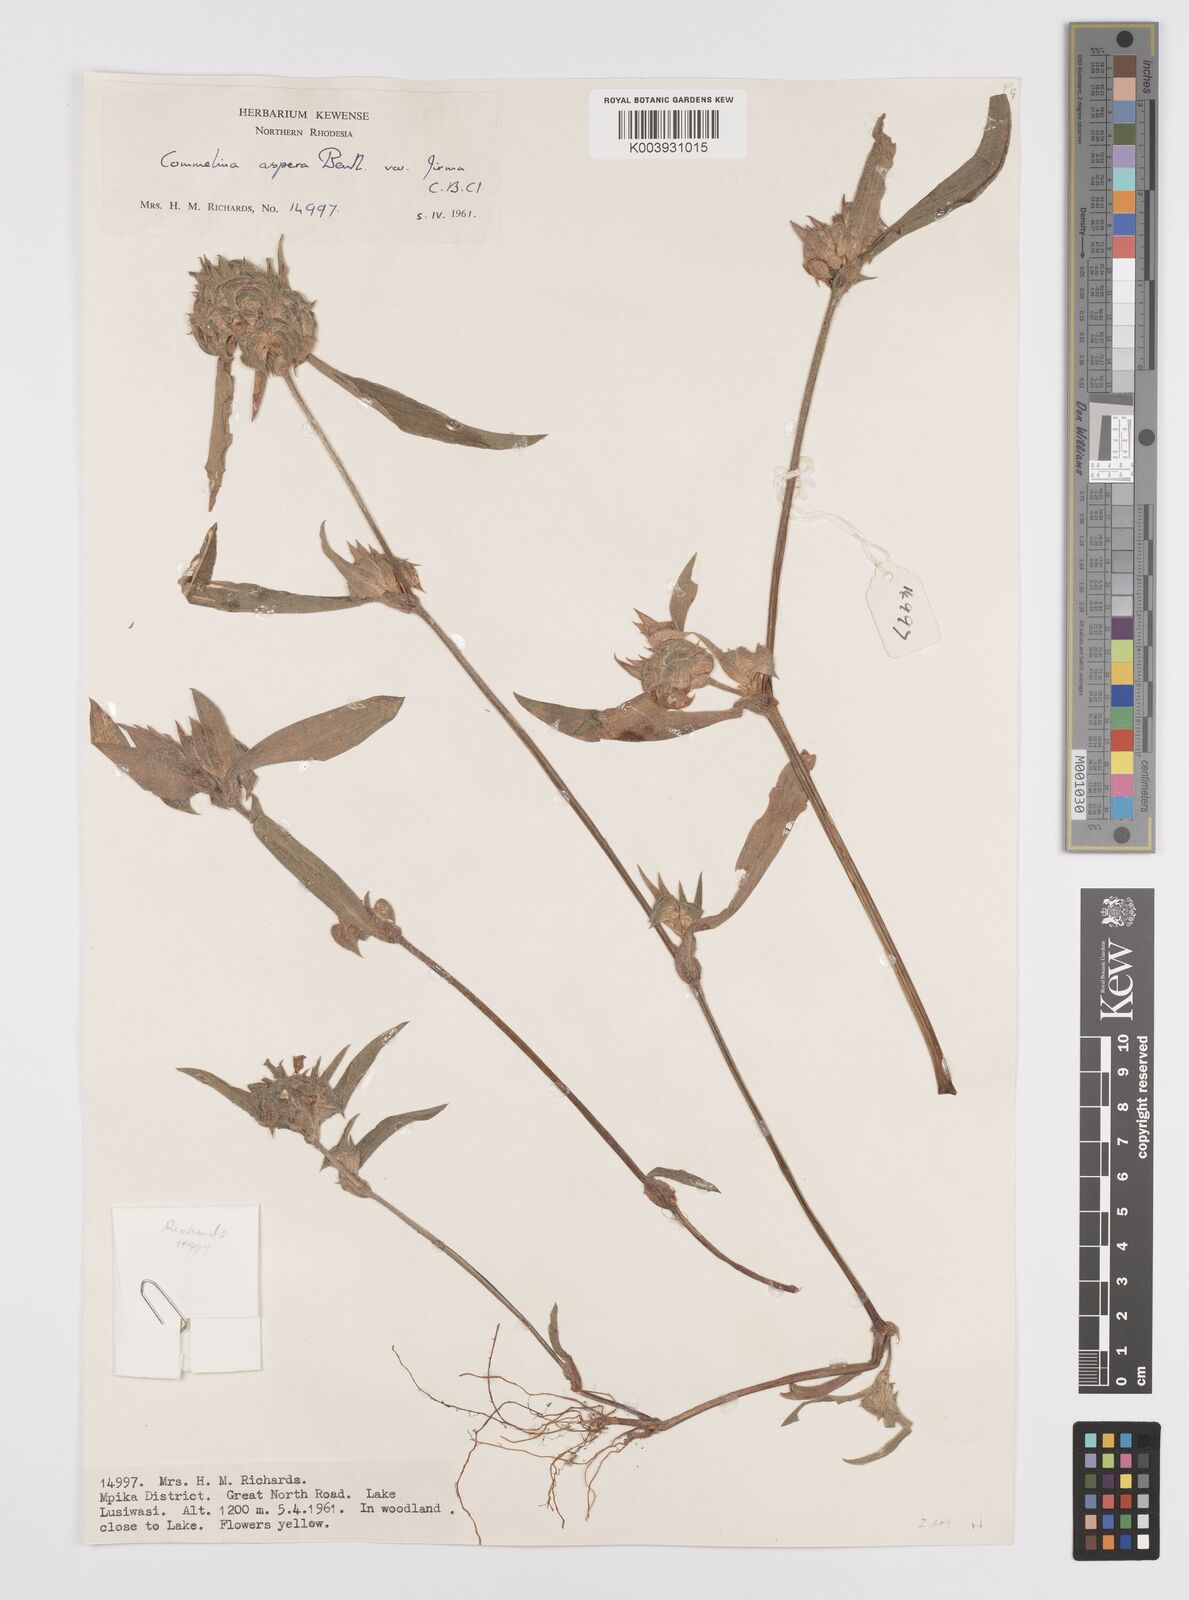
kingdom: Plantae
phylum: Tracheophyta
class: Liliopsida
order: Commelinales
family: Commelinaceae
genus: Commelina
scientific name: Commelina aspera
